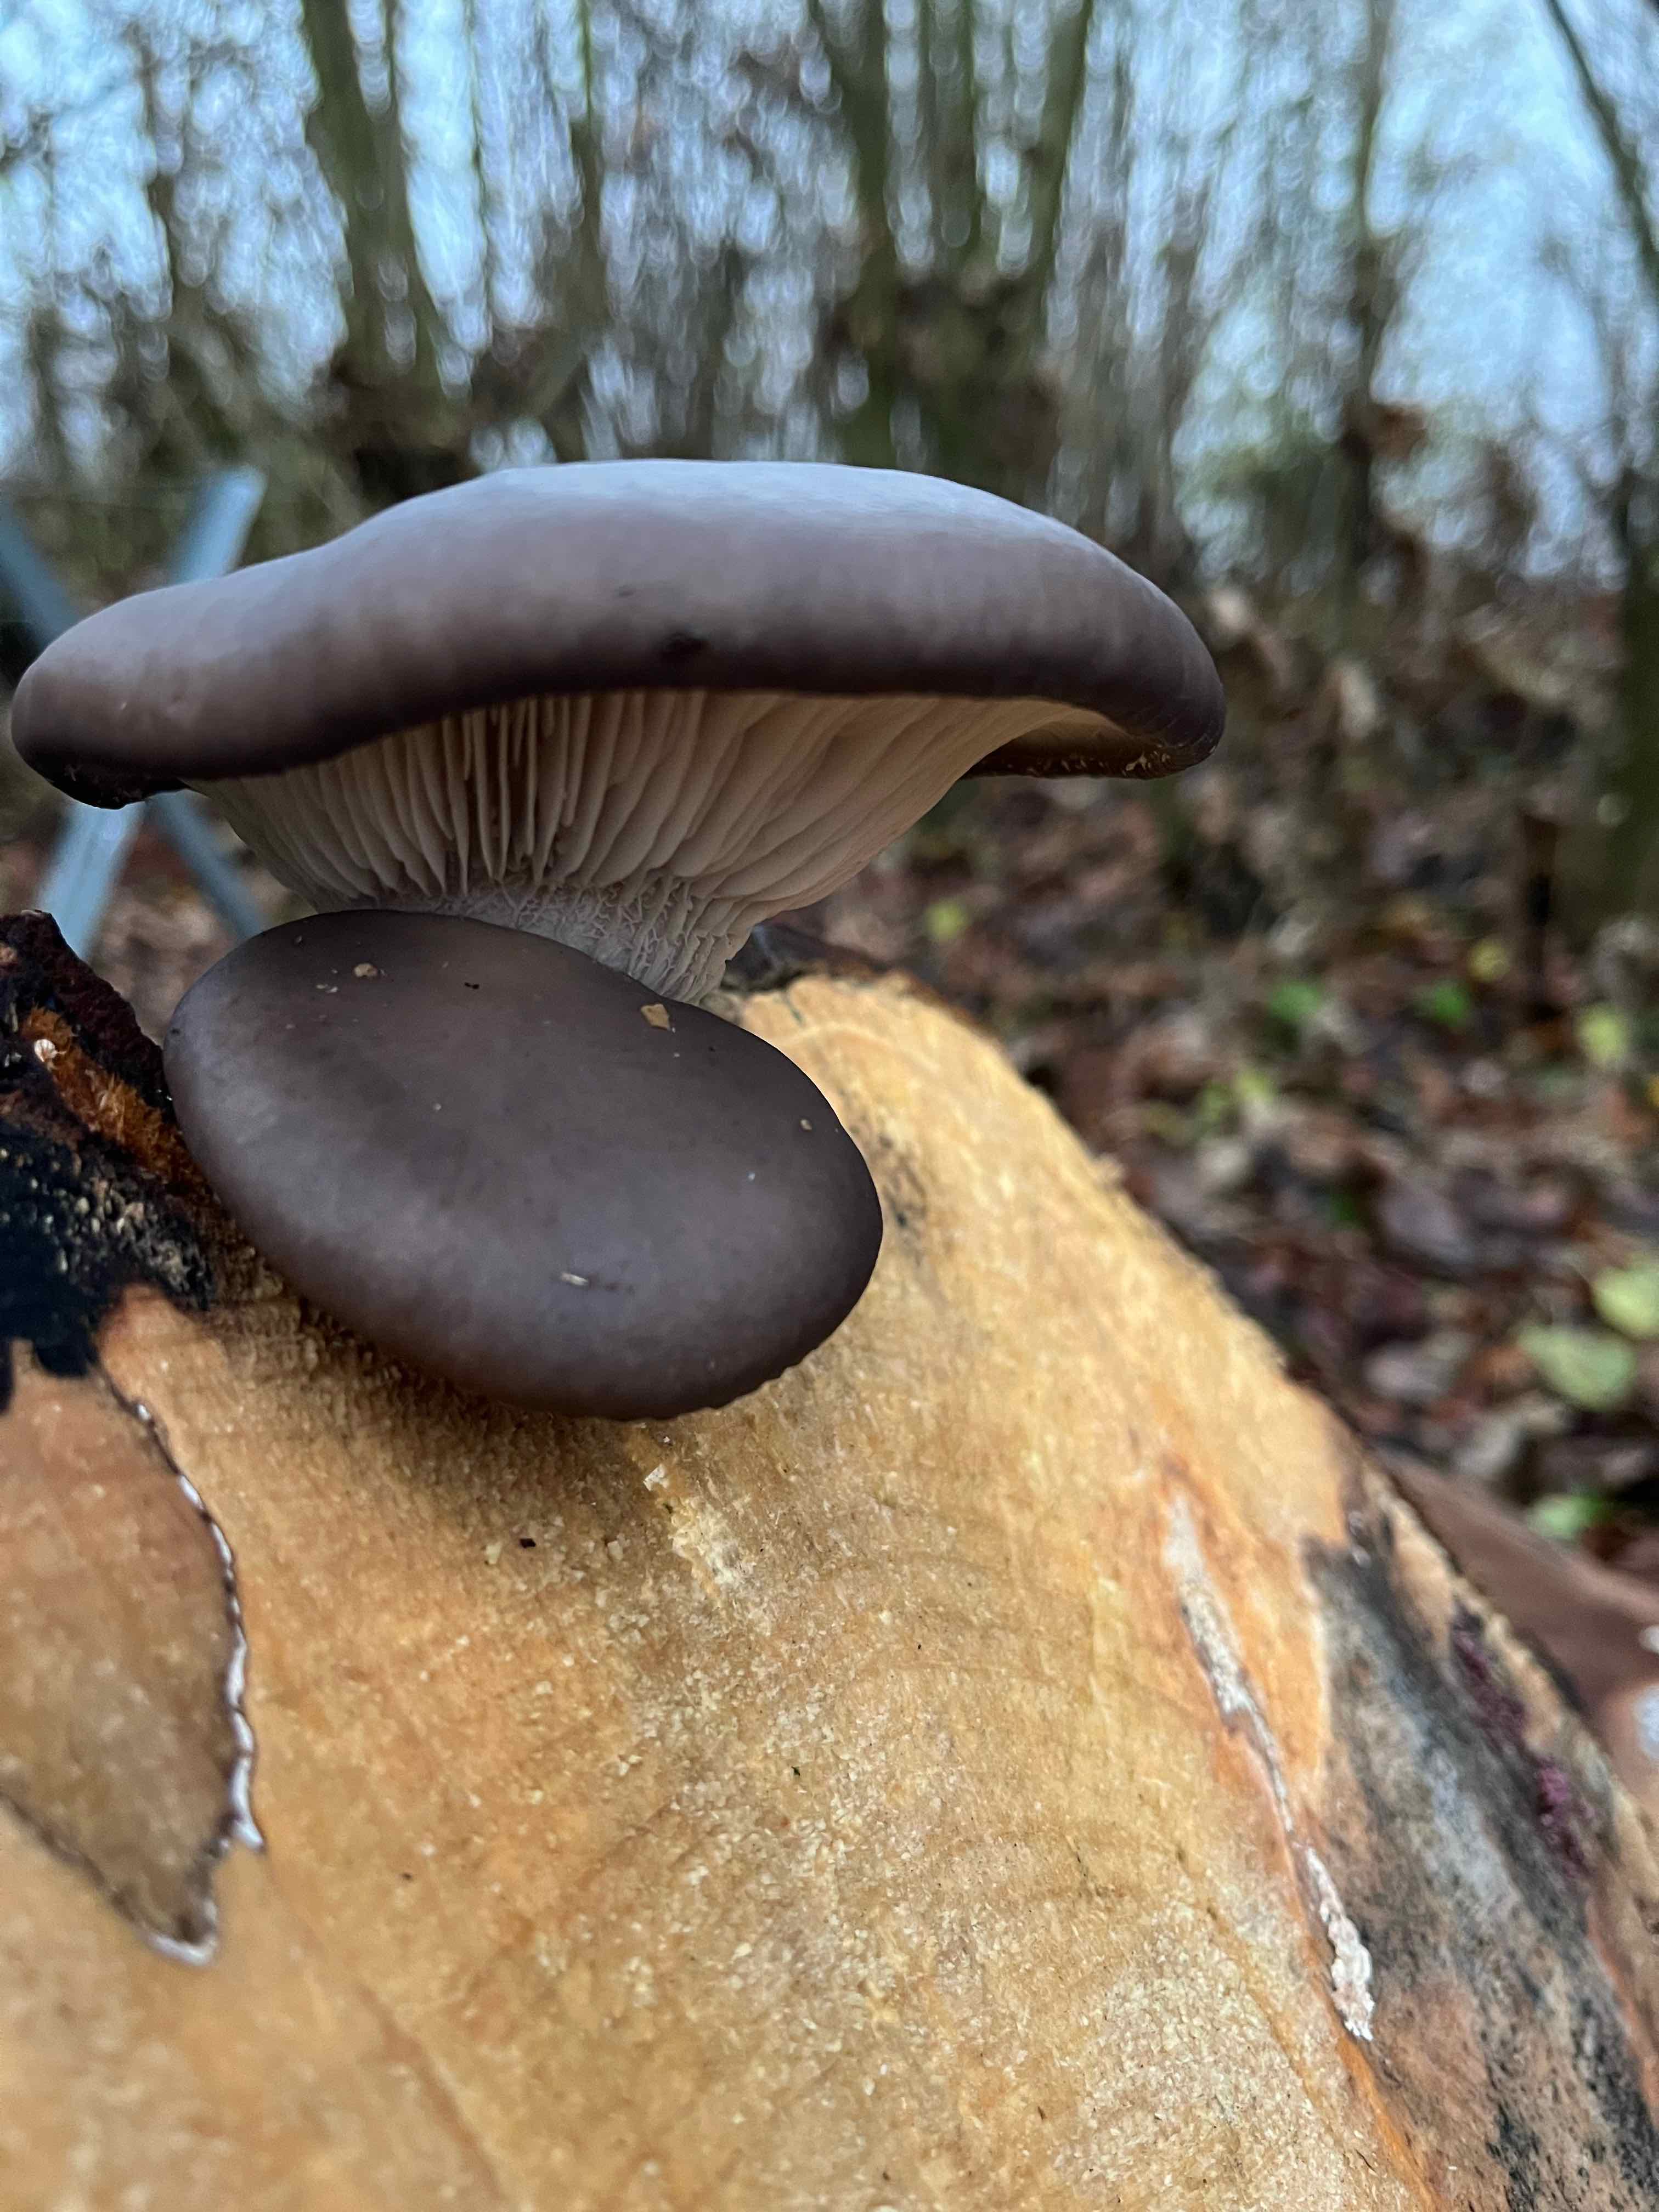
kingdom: Fungi
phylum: Basidiomycota
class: Agaricomycetes
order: Agaricales
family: Pleurotaceae
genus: Pleurotus
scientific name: Pleurotus ostreatus
